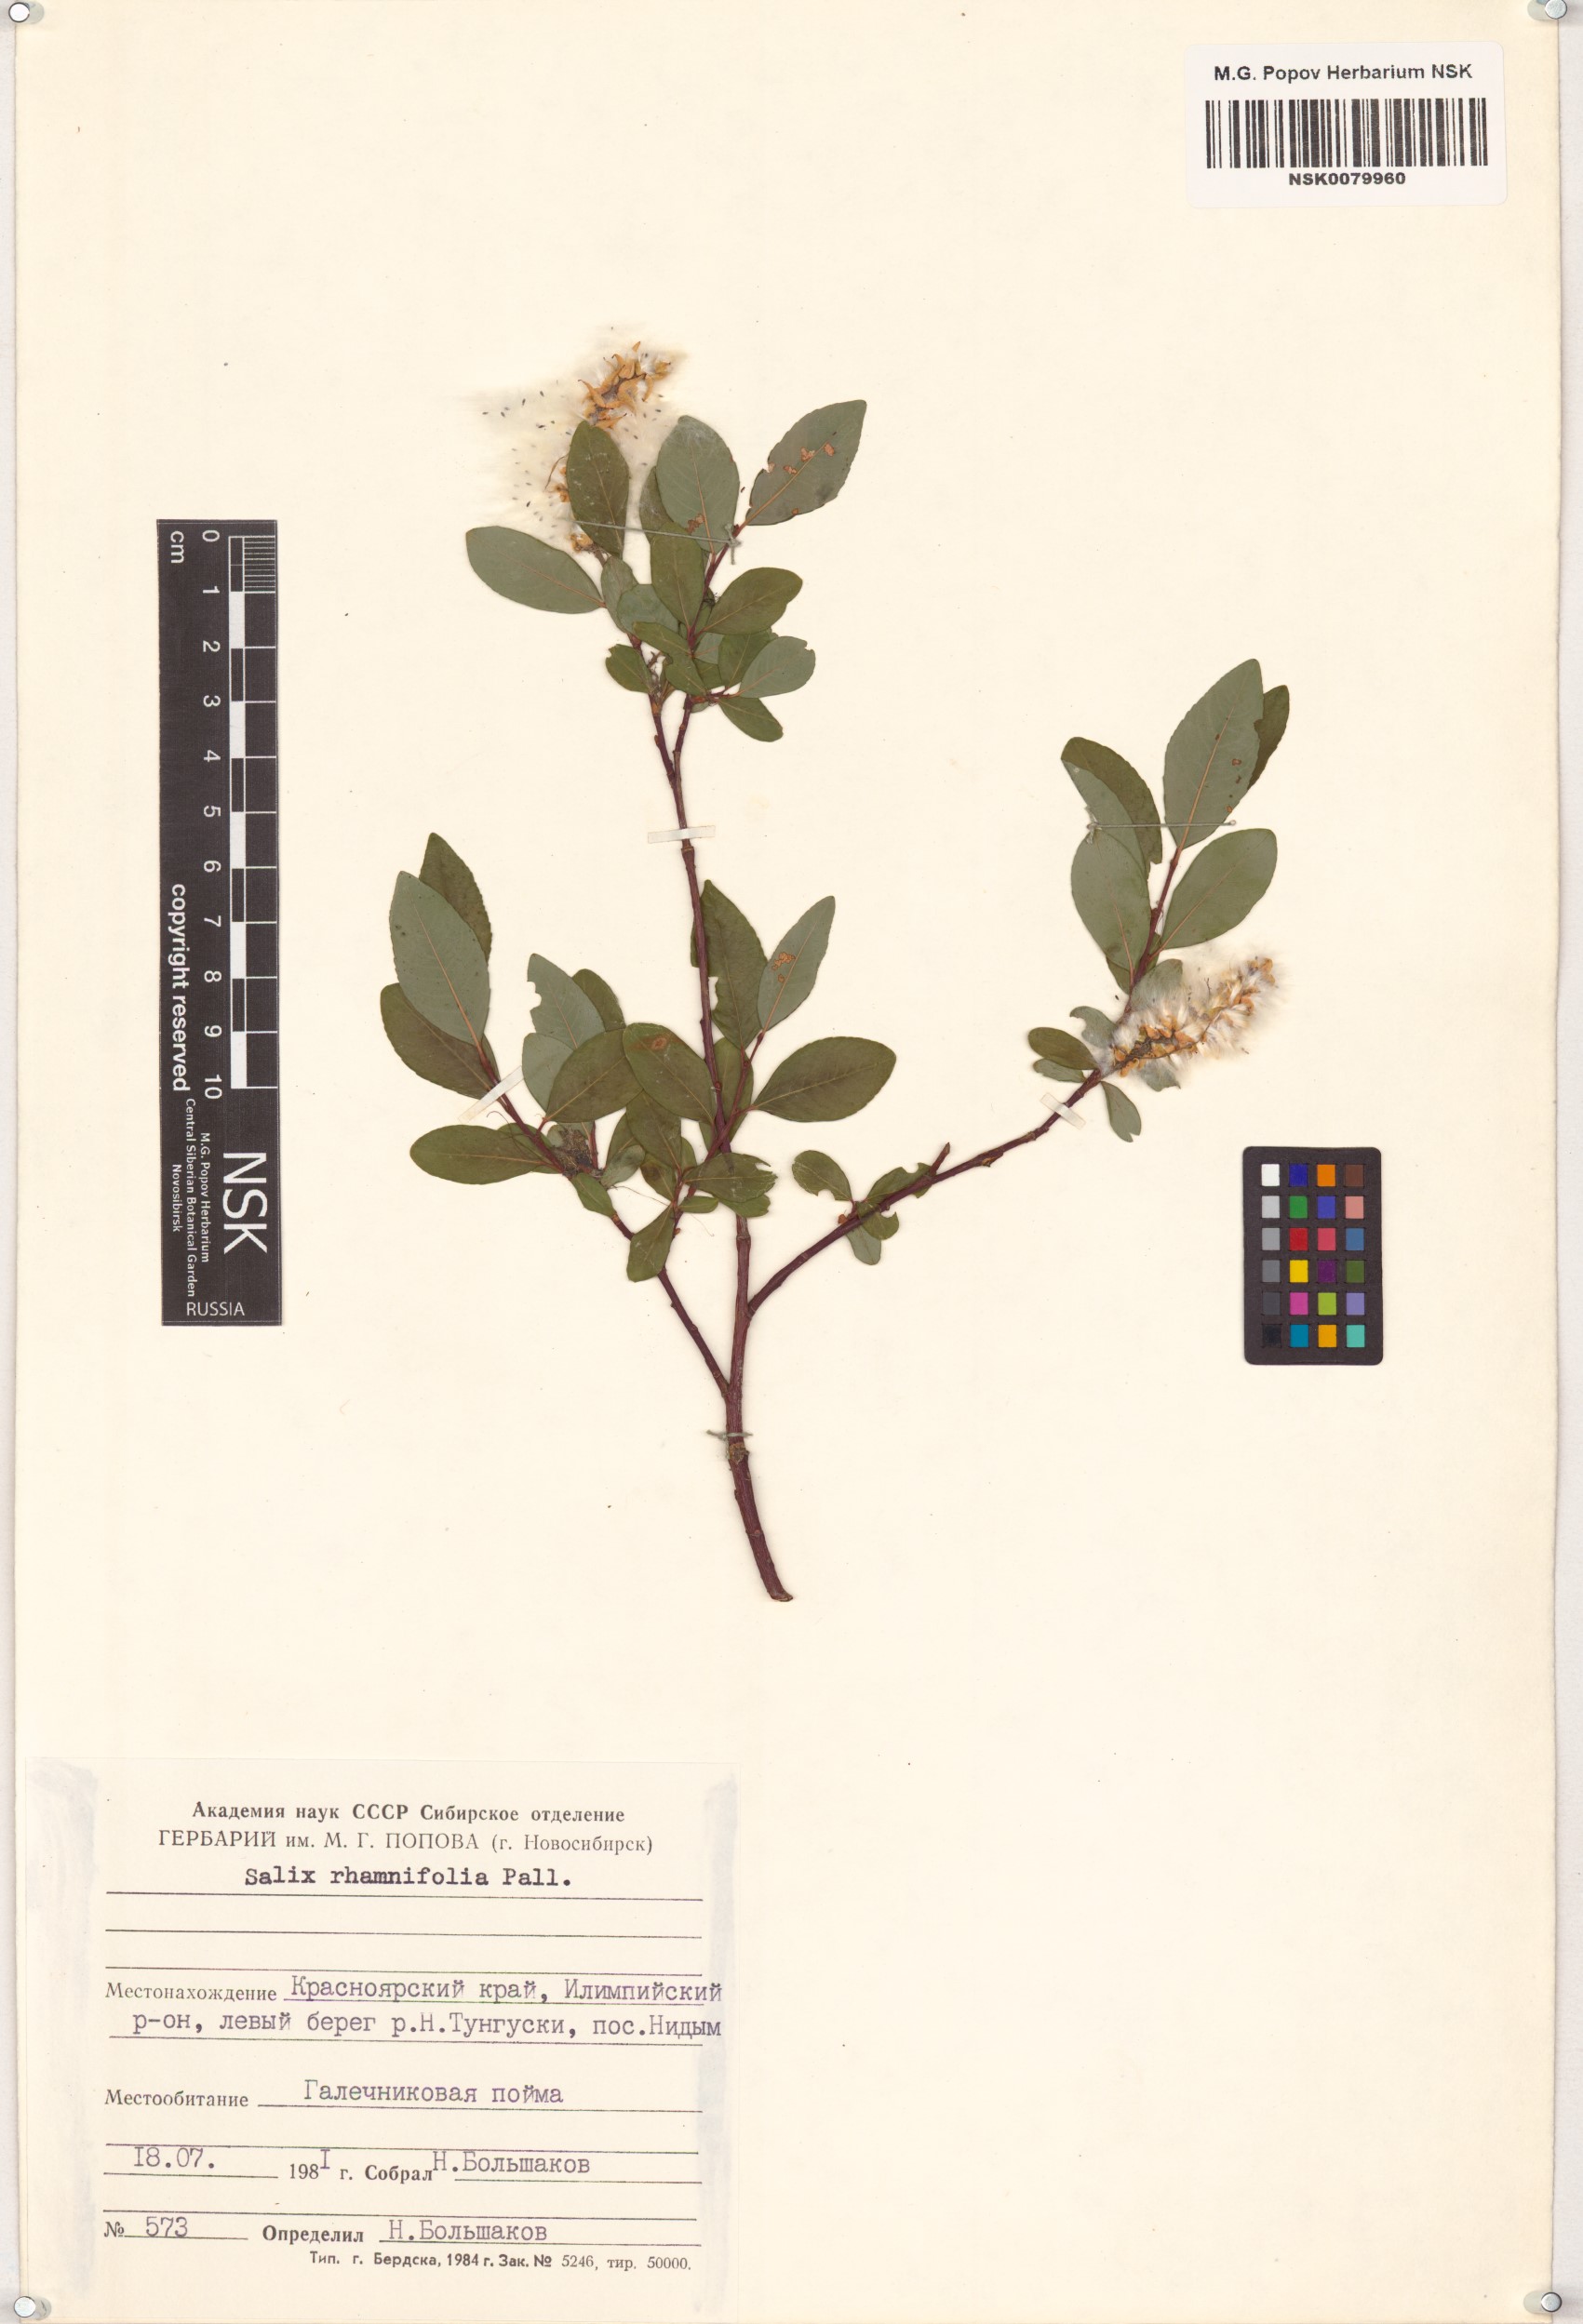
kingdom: Plantae
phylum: Tracheophyta
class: Magnoliopsida
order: Malpighiales
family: Salicaceae
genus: Salix
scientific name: Salix rhamnifolia
